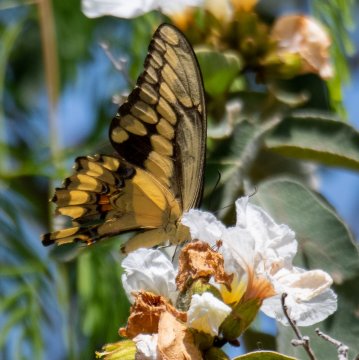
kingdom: Animalia
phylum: Arthropoda
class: Insecta
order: Lepidoptera
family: Papilionidae
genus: Papilio
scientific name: Papilio cresphontes
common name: Eastern Giant Swallowtail
